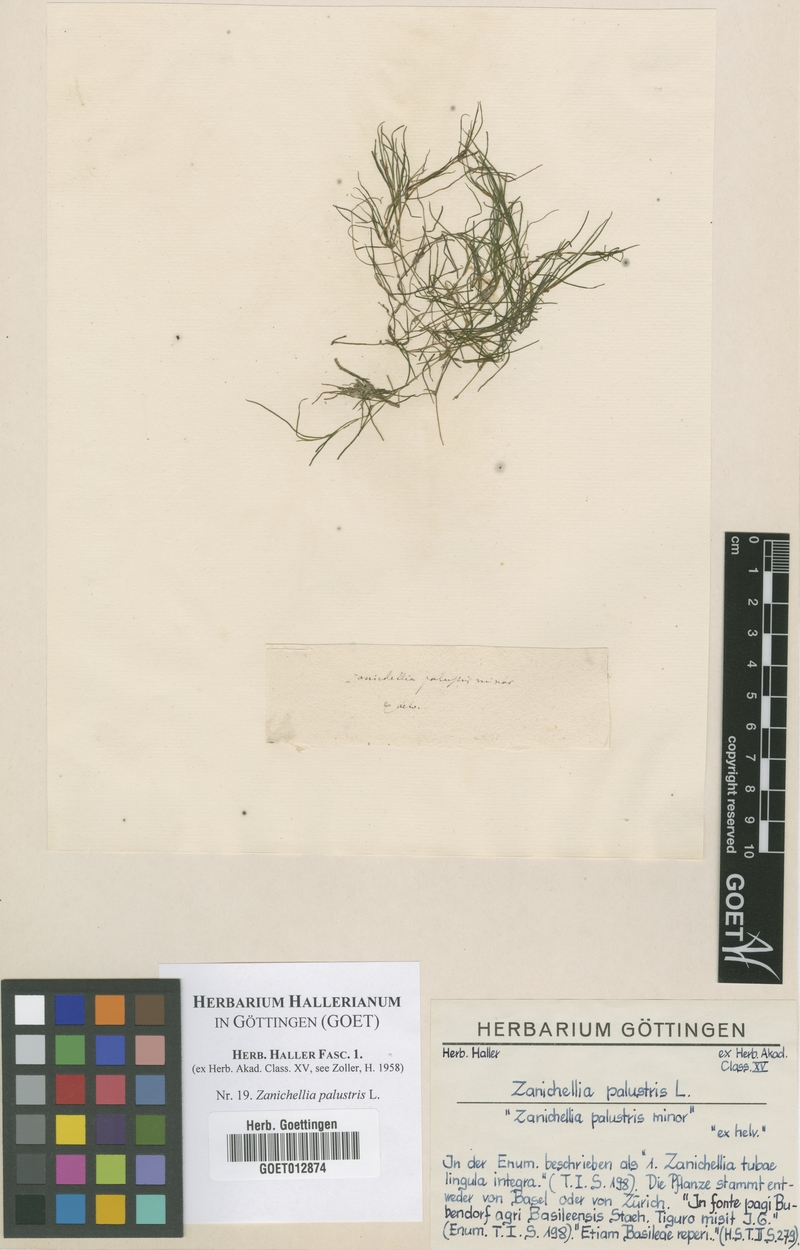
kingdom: Plantae
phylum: Tracheophyta
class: Liliopsida
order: Alismatales
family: Potamogetonaceae
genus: Zannichellia
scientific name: Zannichellia palustris
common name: Horned pondweed
